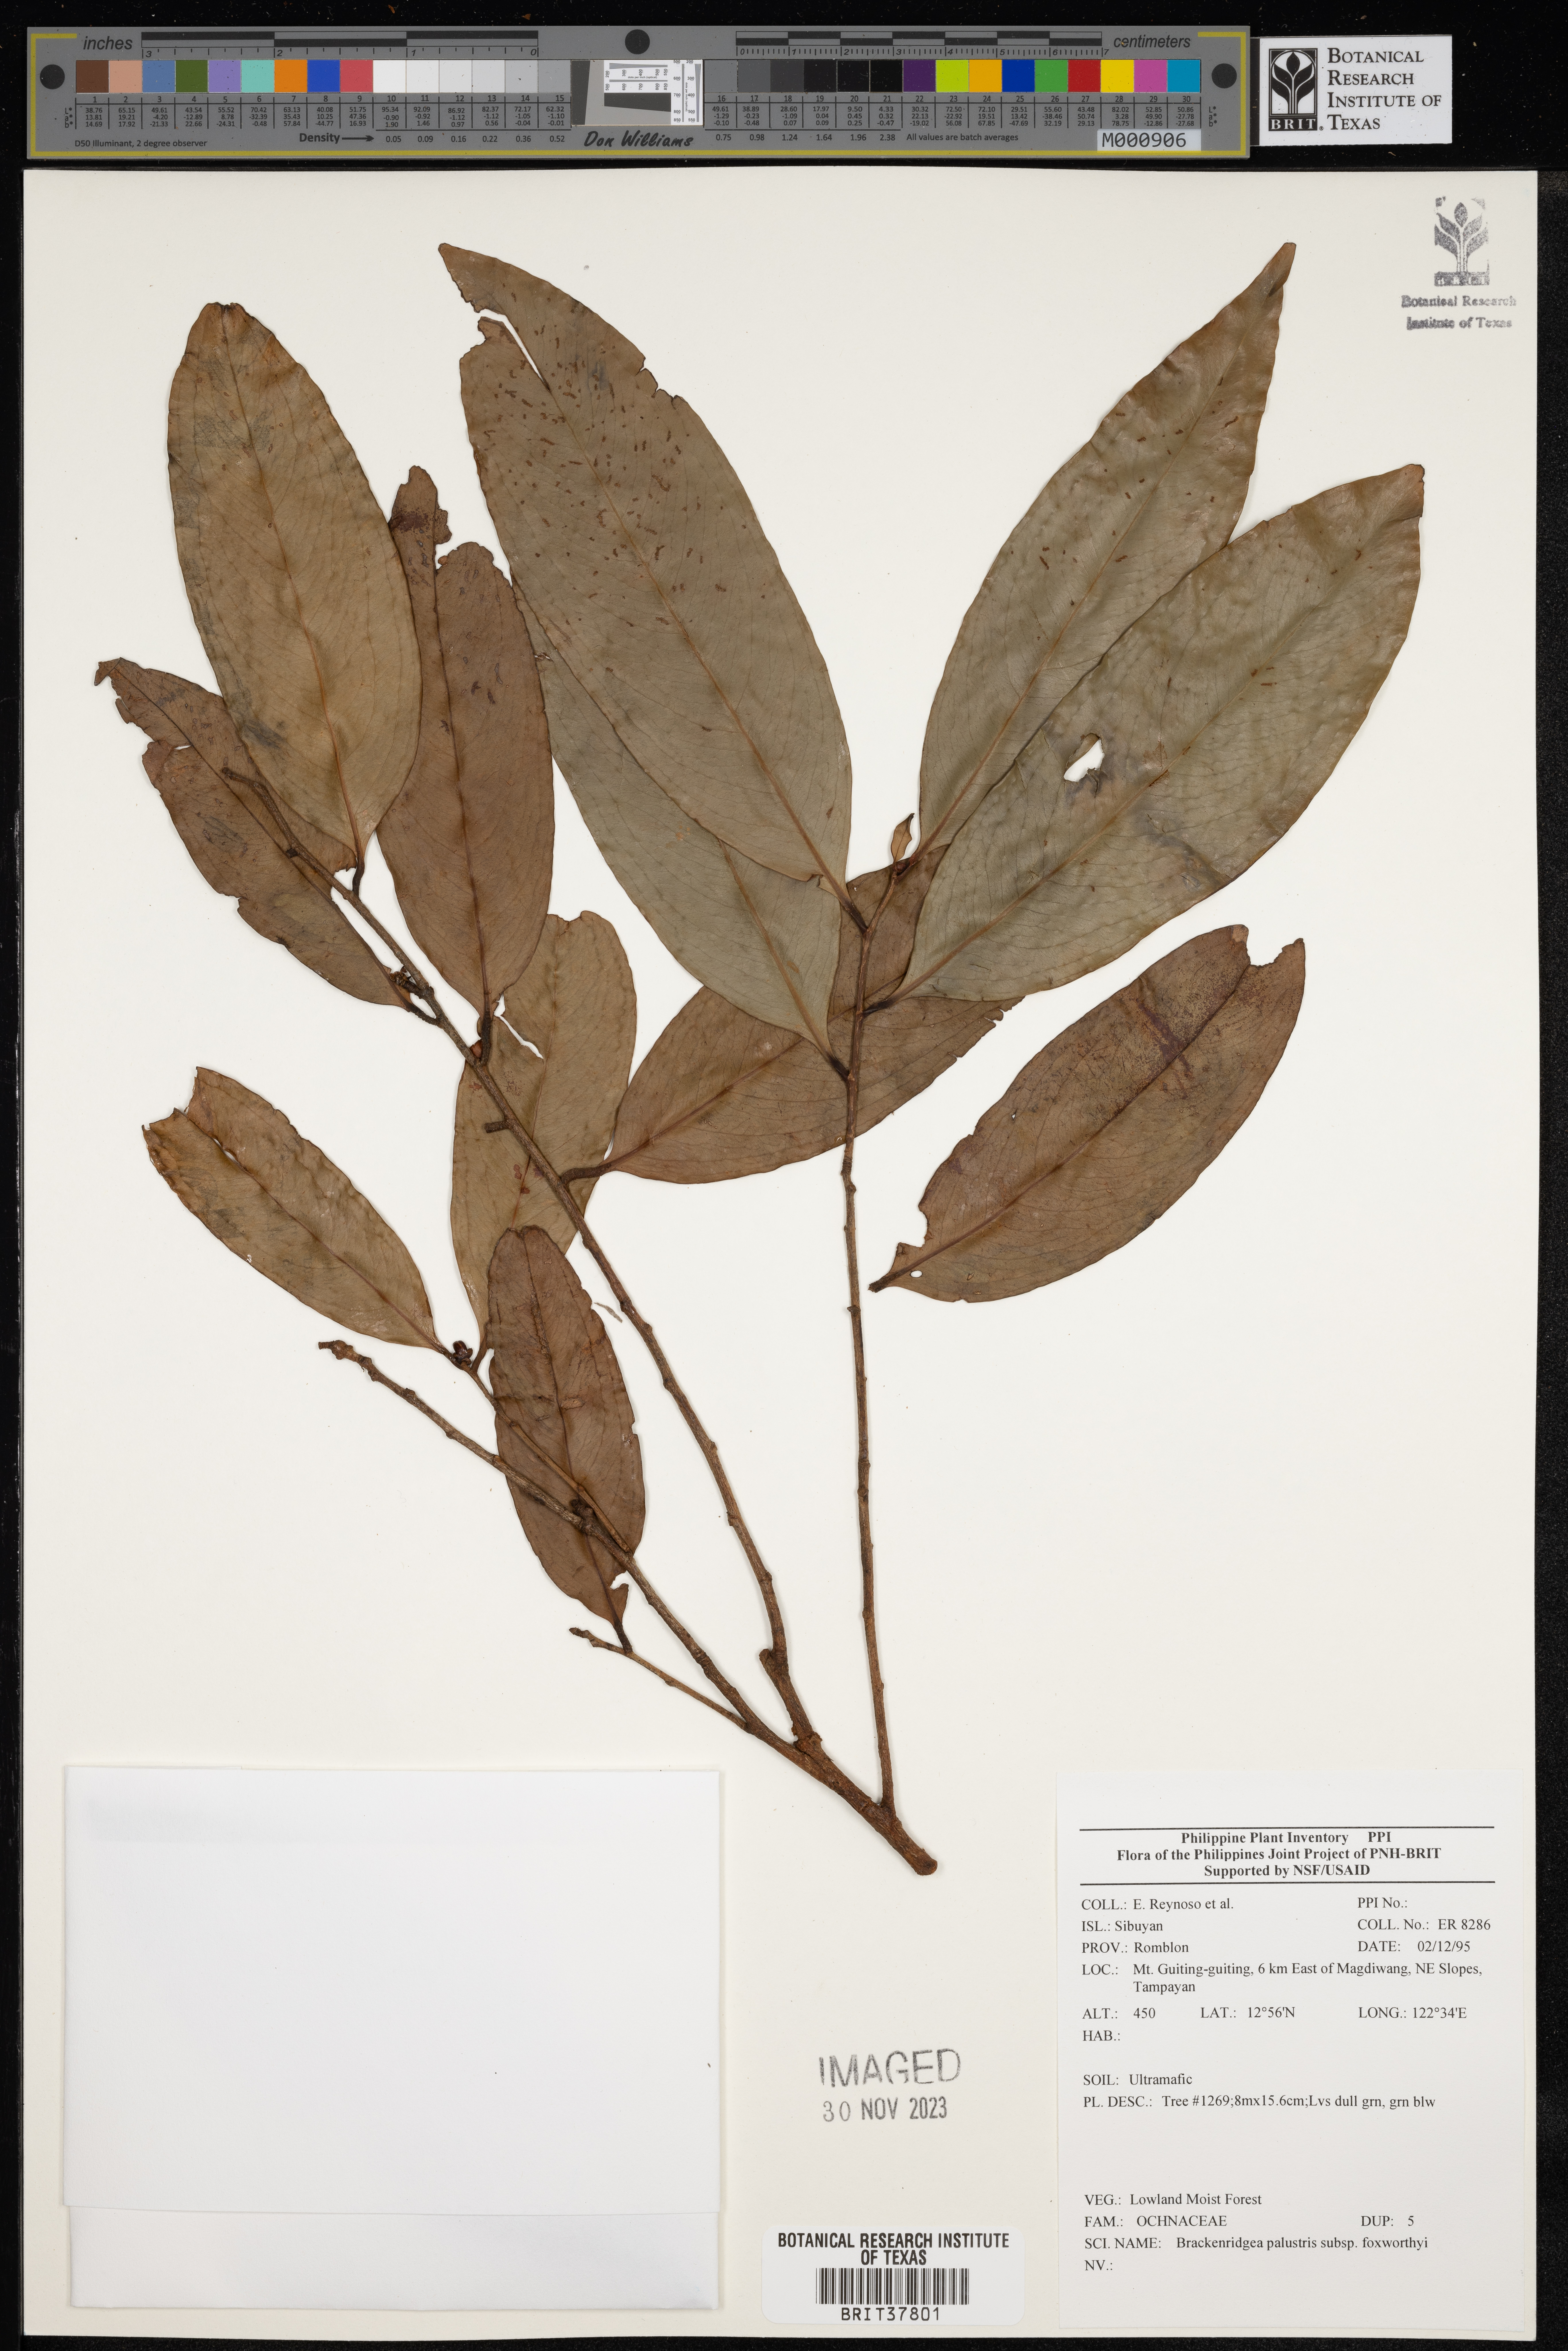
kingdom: Plantae
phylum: Tracheophyta
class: Magnoliopsida
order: Malpighiales
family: Ochnaceae
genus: Brackenridgea
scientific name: Brackenridgea
